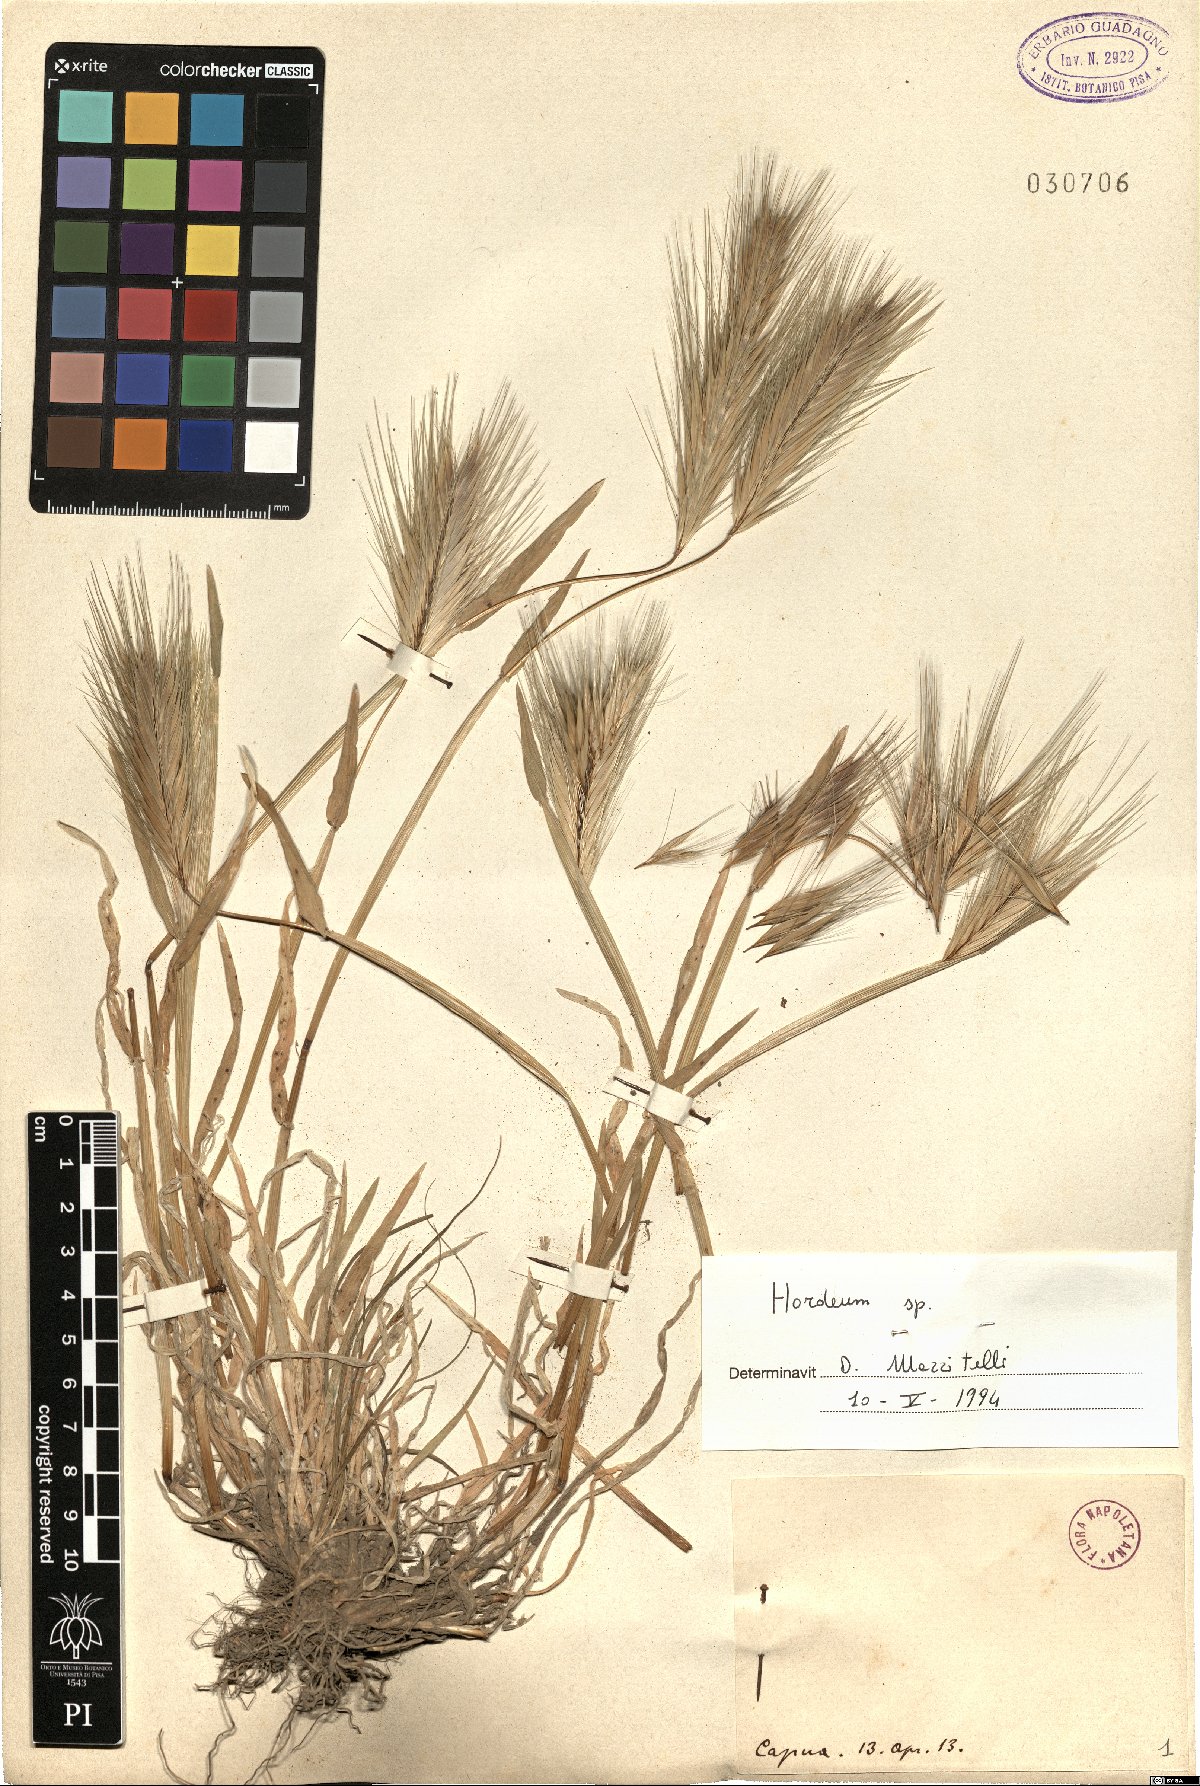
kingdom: Plantae
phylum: Tracheophyta
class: Liliopsida
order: Poales
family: Poaceae
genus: Hordeum
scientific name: Hordeum
